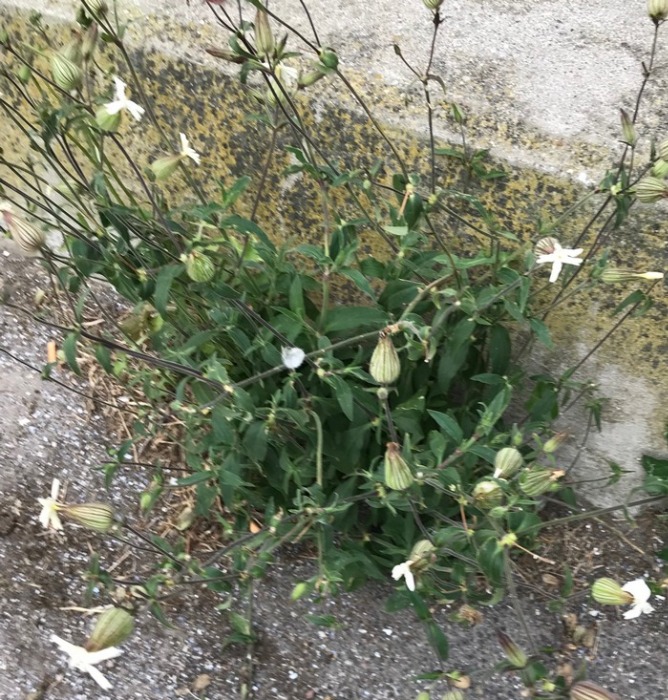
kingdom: Plantae
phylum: Tracheophyta
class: Magnoliopsida
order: Caryophyllales
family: Caryophyllaceae
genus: Silene
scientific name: Silene latifolia
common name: Aftenpragtstjerne
